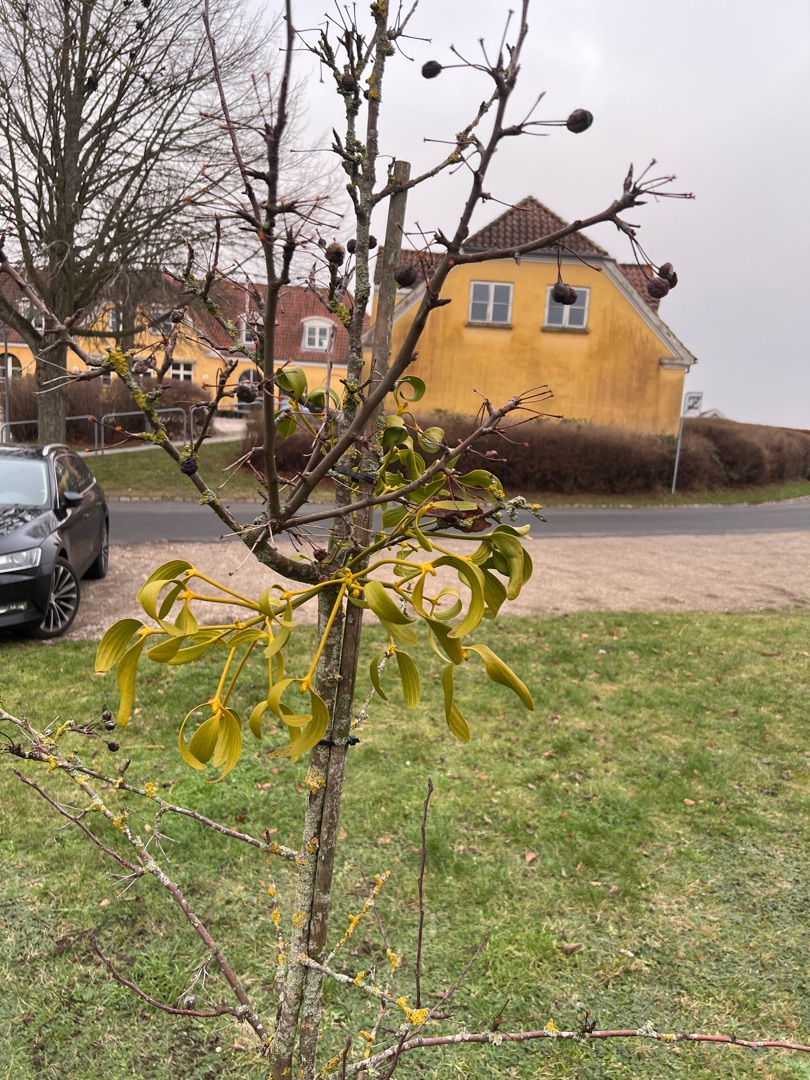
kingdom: Plantae
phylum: Tracheophyta
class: Magnoliopsida
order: Santalales
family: Viscaceae
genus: Viscum
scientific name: Viscum album
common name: Mistelten
